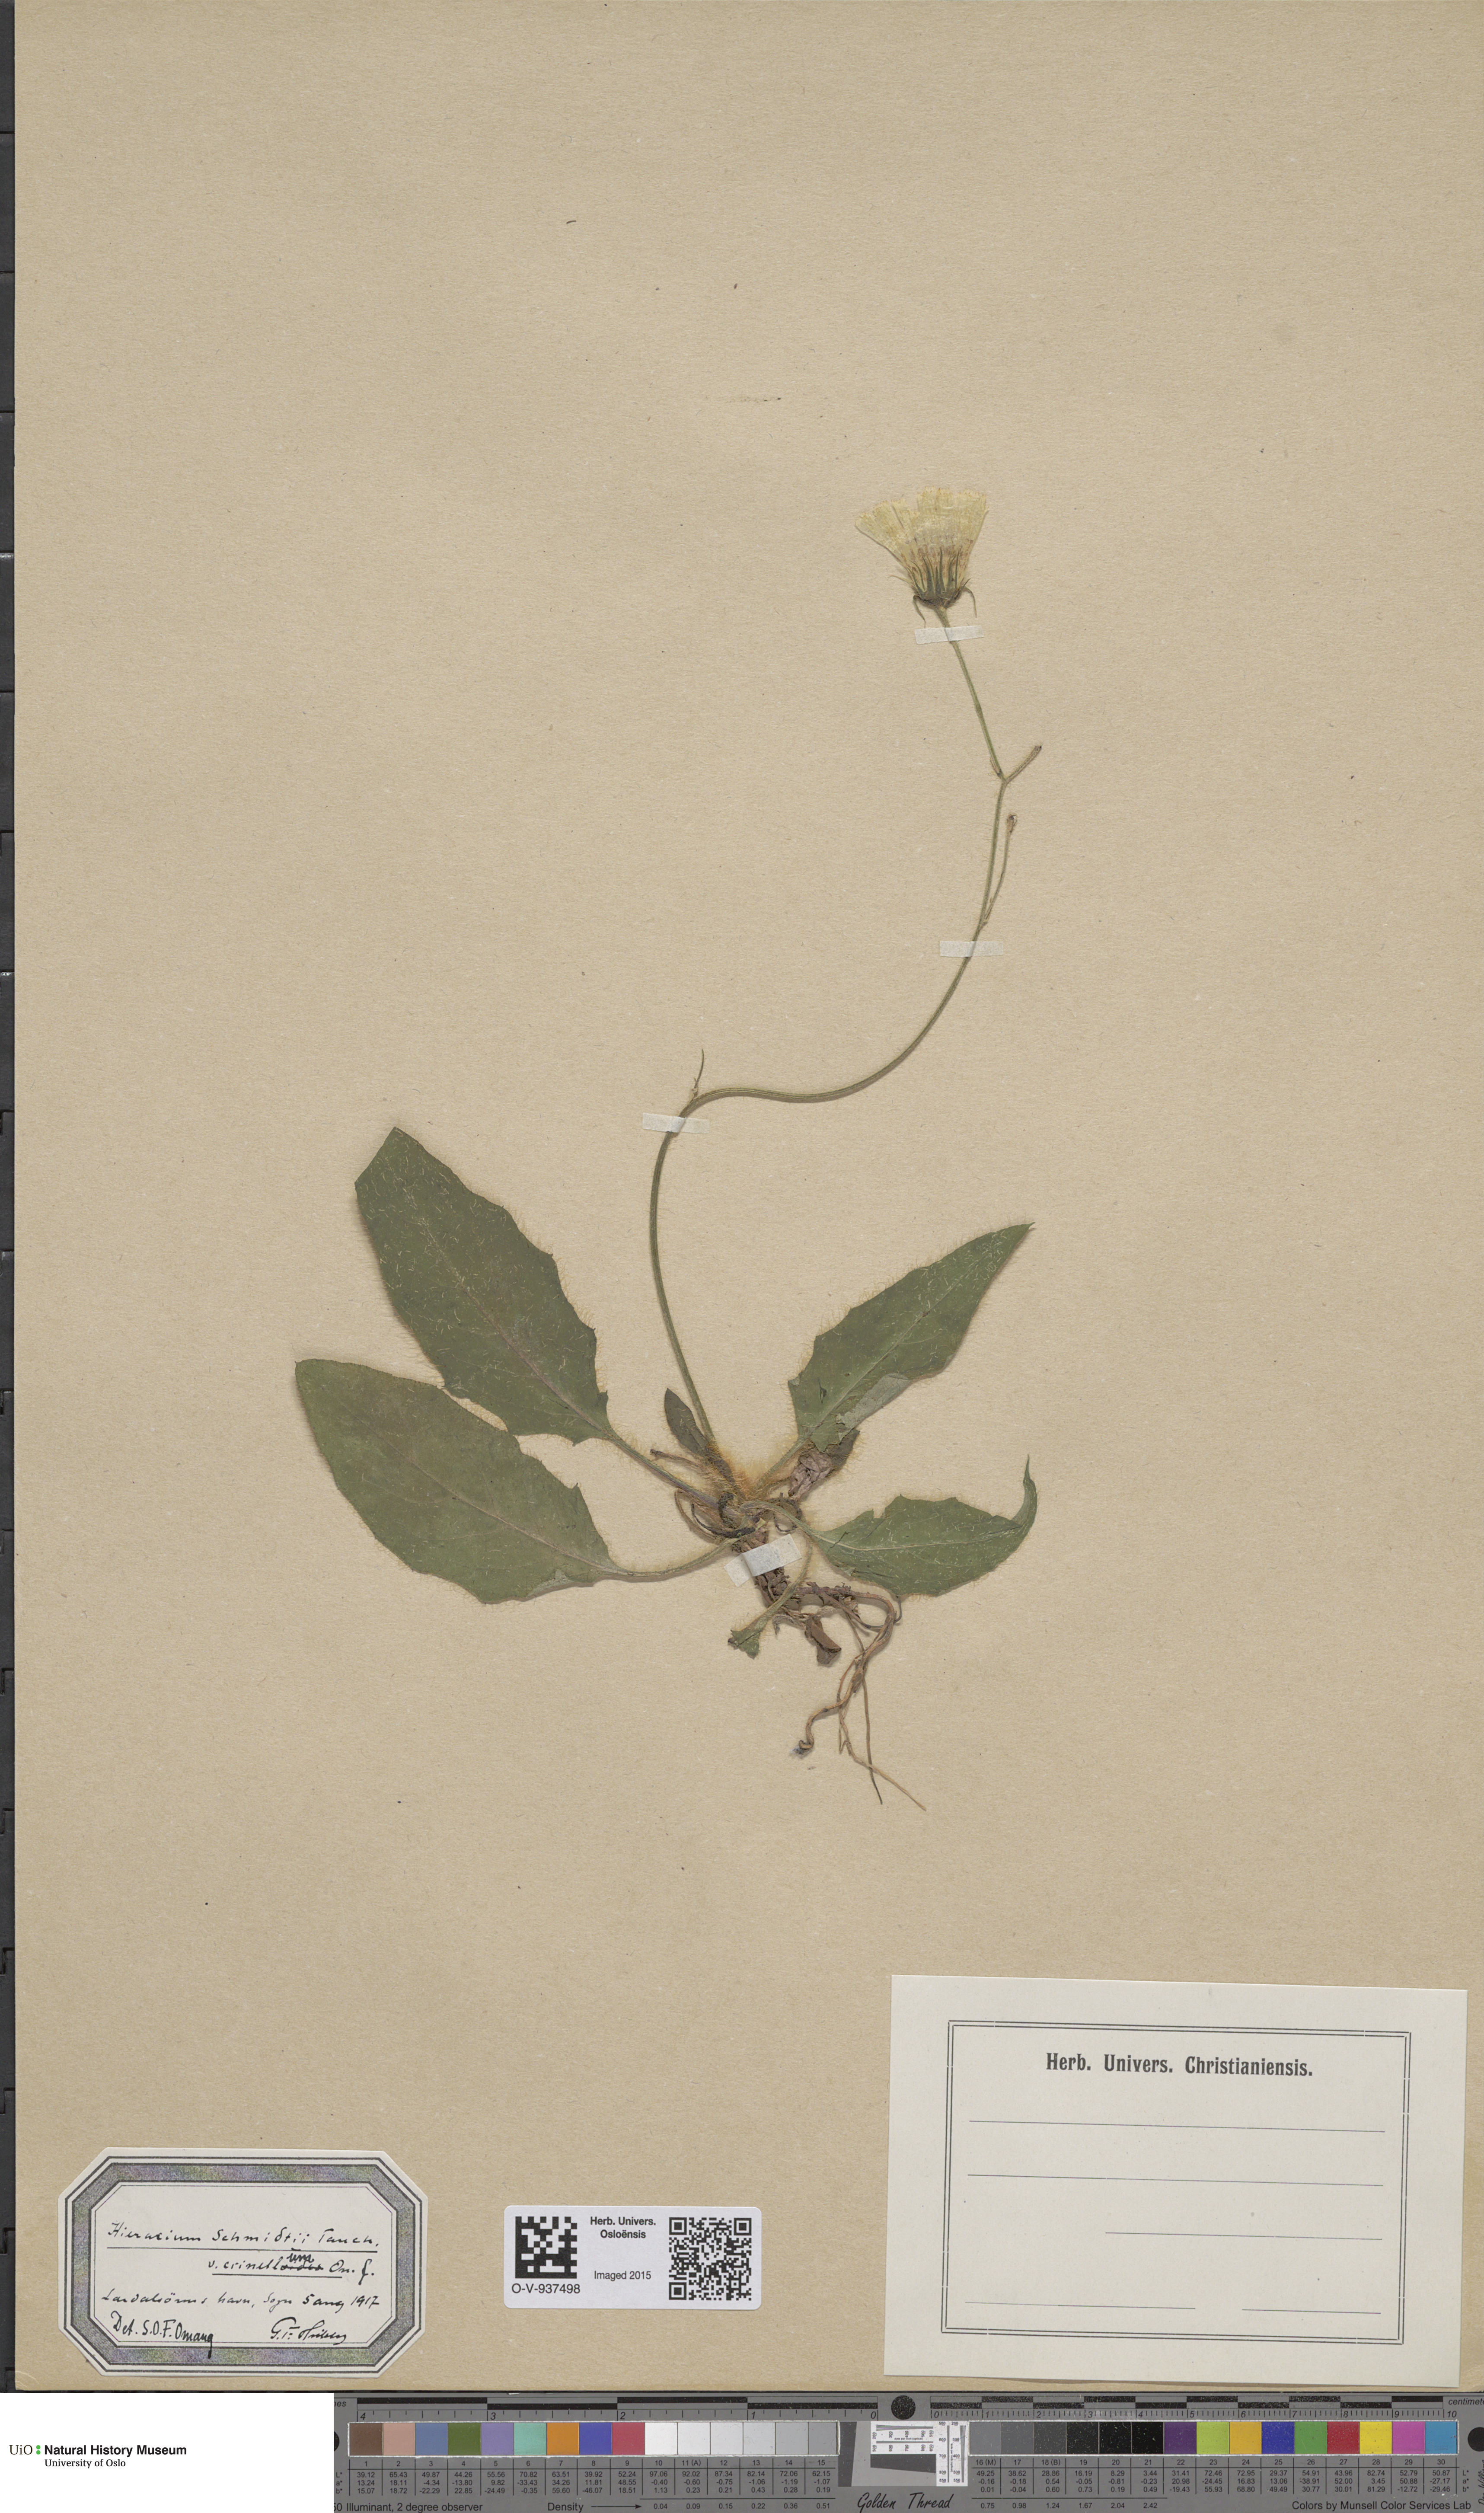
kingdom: Plantae
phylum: Tracheophyta
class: Magnoliopsida
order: Asterales
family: Asteraceae
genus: Hieracium
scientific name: Hieracium schmidtii
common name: Schmidt's hawkweed
